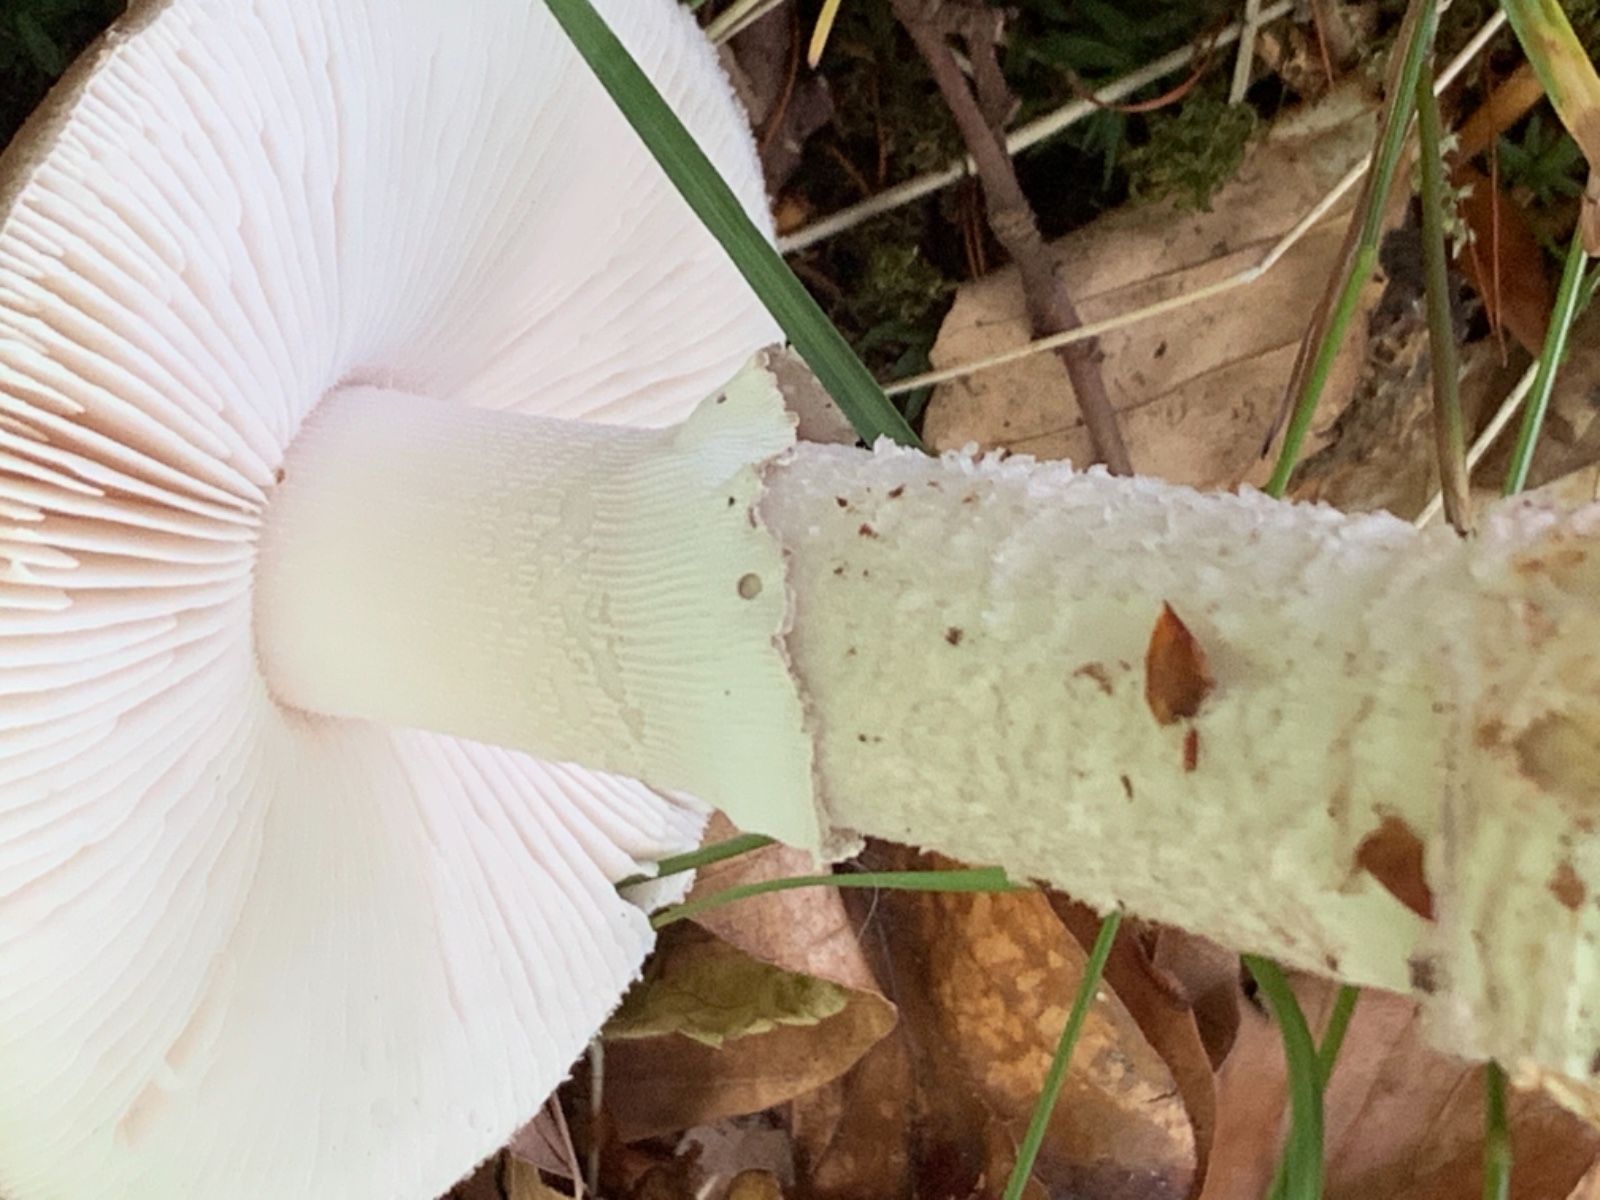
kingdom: Fungi
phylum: Basidiomycota
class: Agaricomycetes
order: Agaricales
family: Amanitaceae
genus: Amanita
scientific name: Amanita
